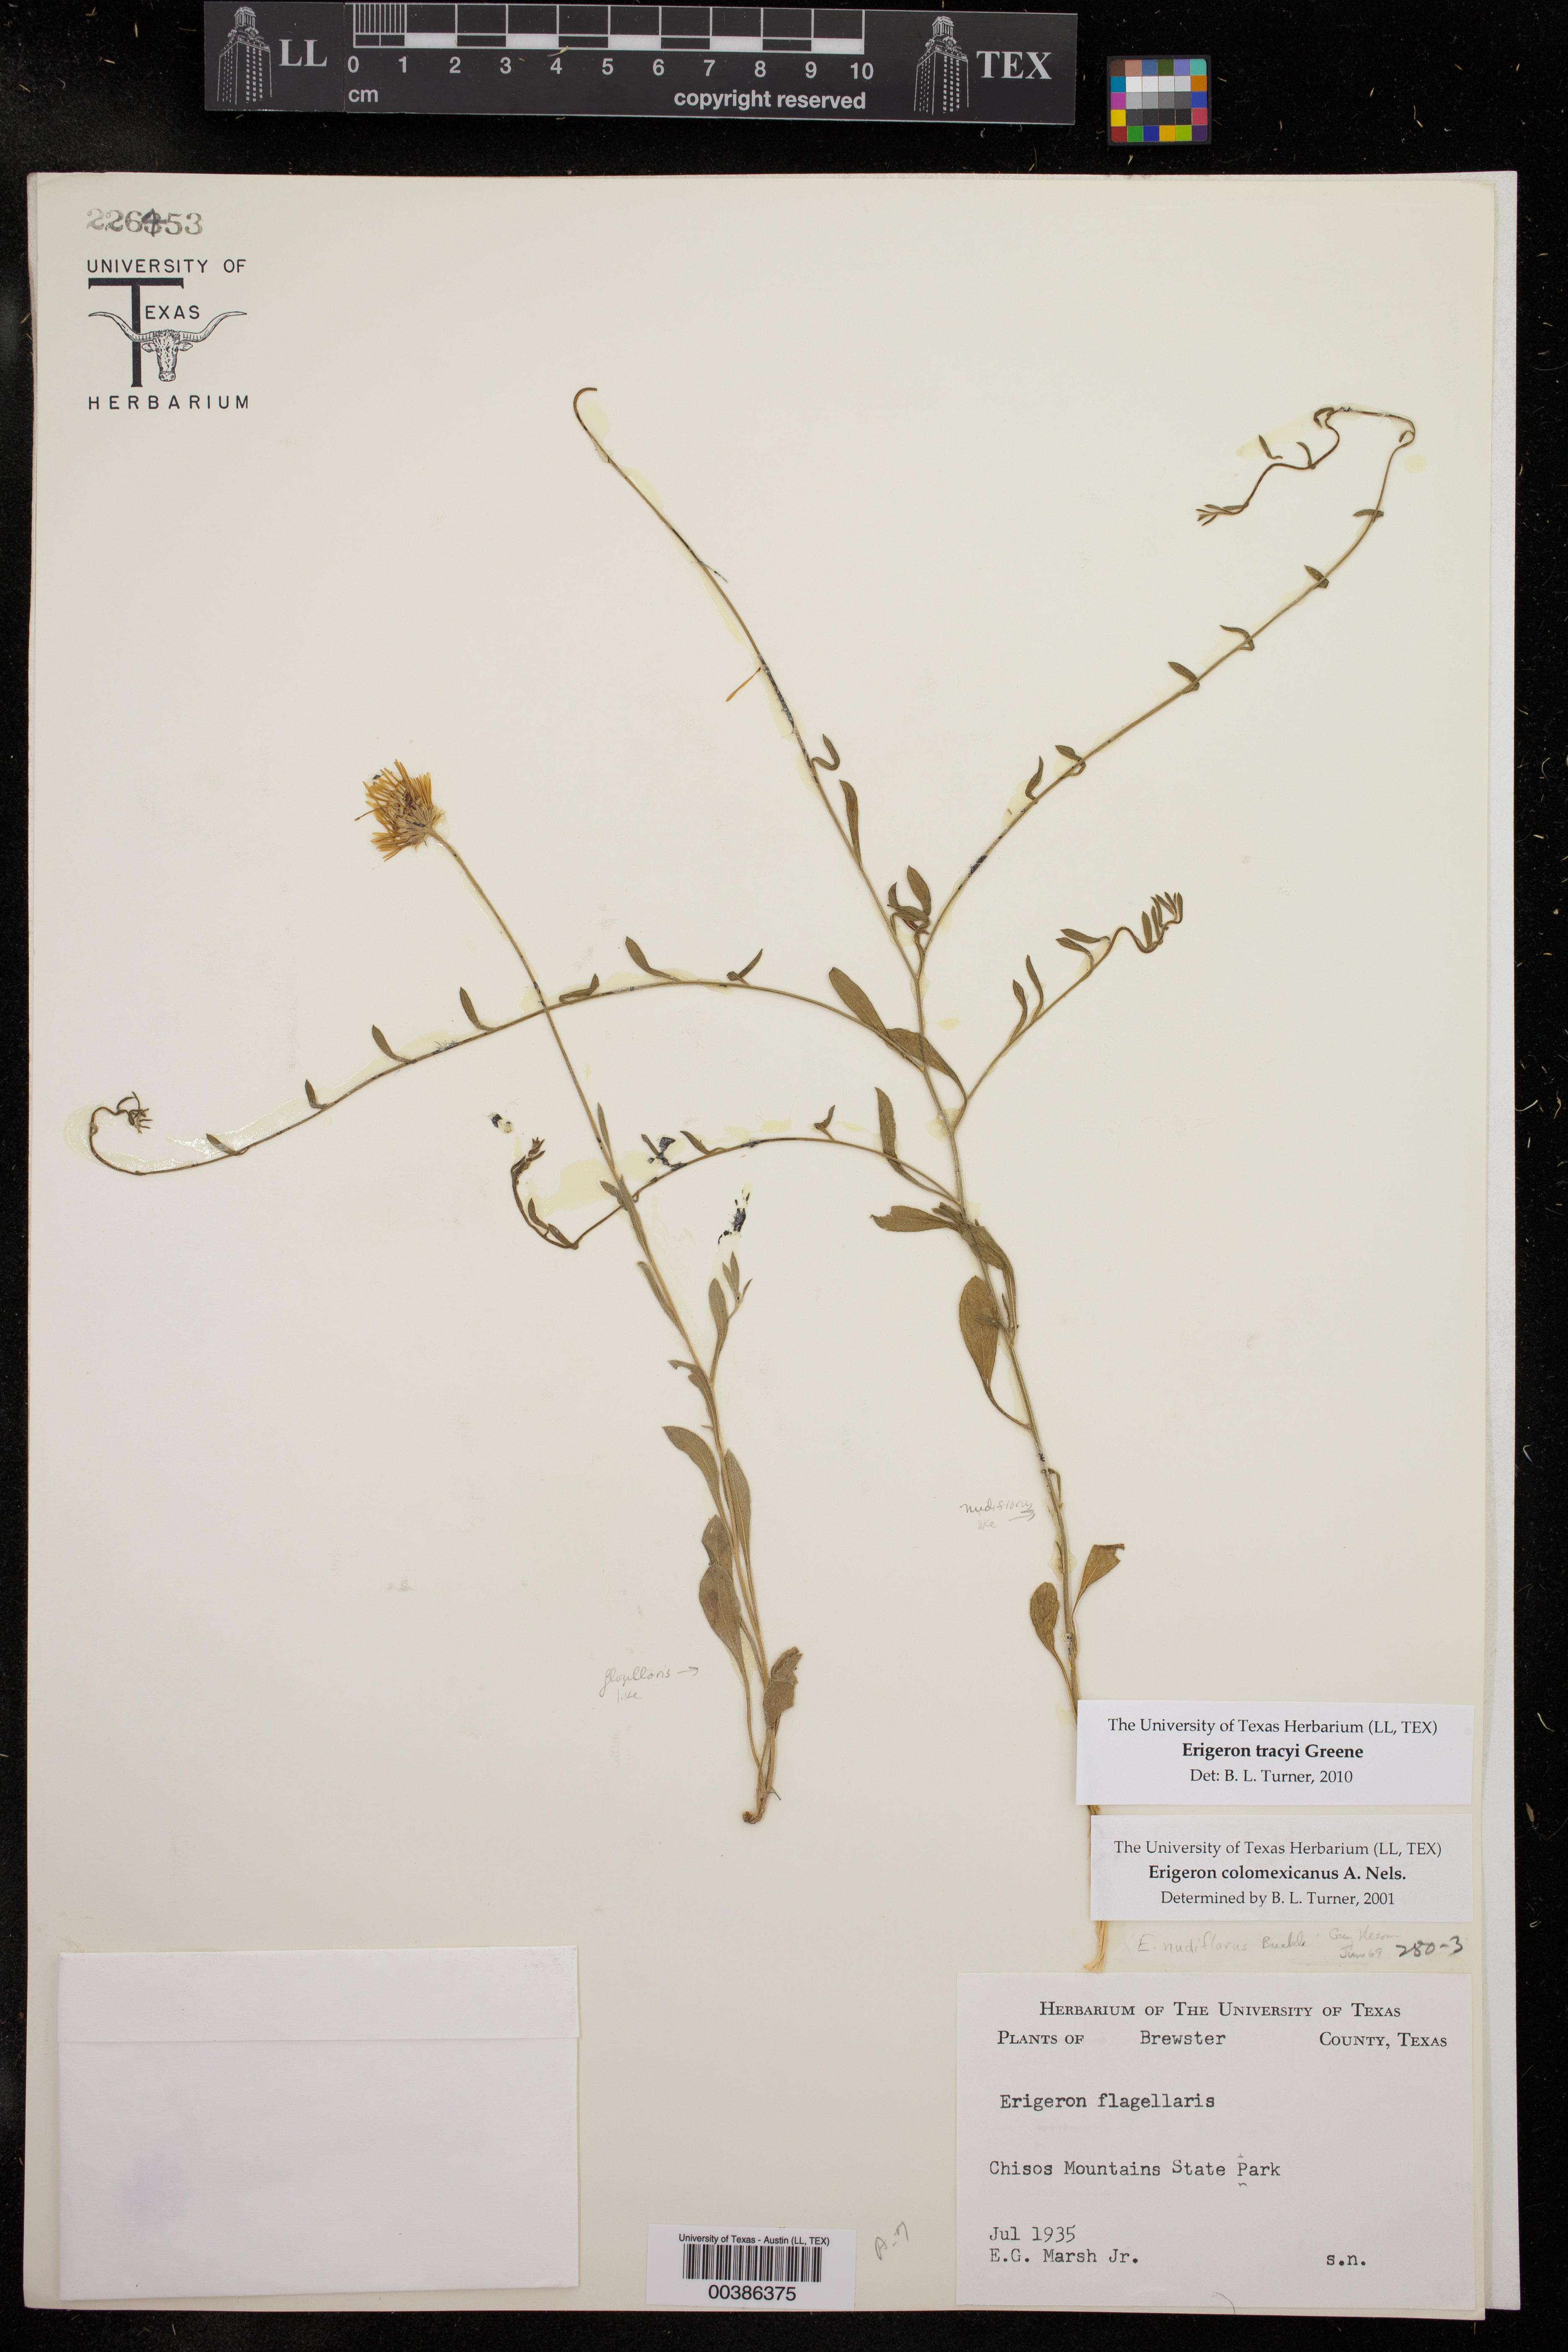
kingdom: Plantae
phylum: Tracheophyta
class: Magnoliopsida
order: Asterales
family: Asteraceae
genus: Erigeron
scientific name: Erigeron tracyi
